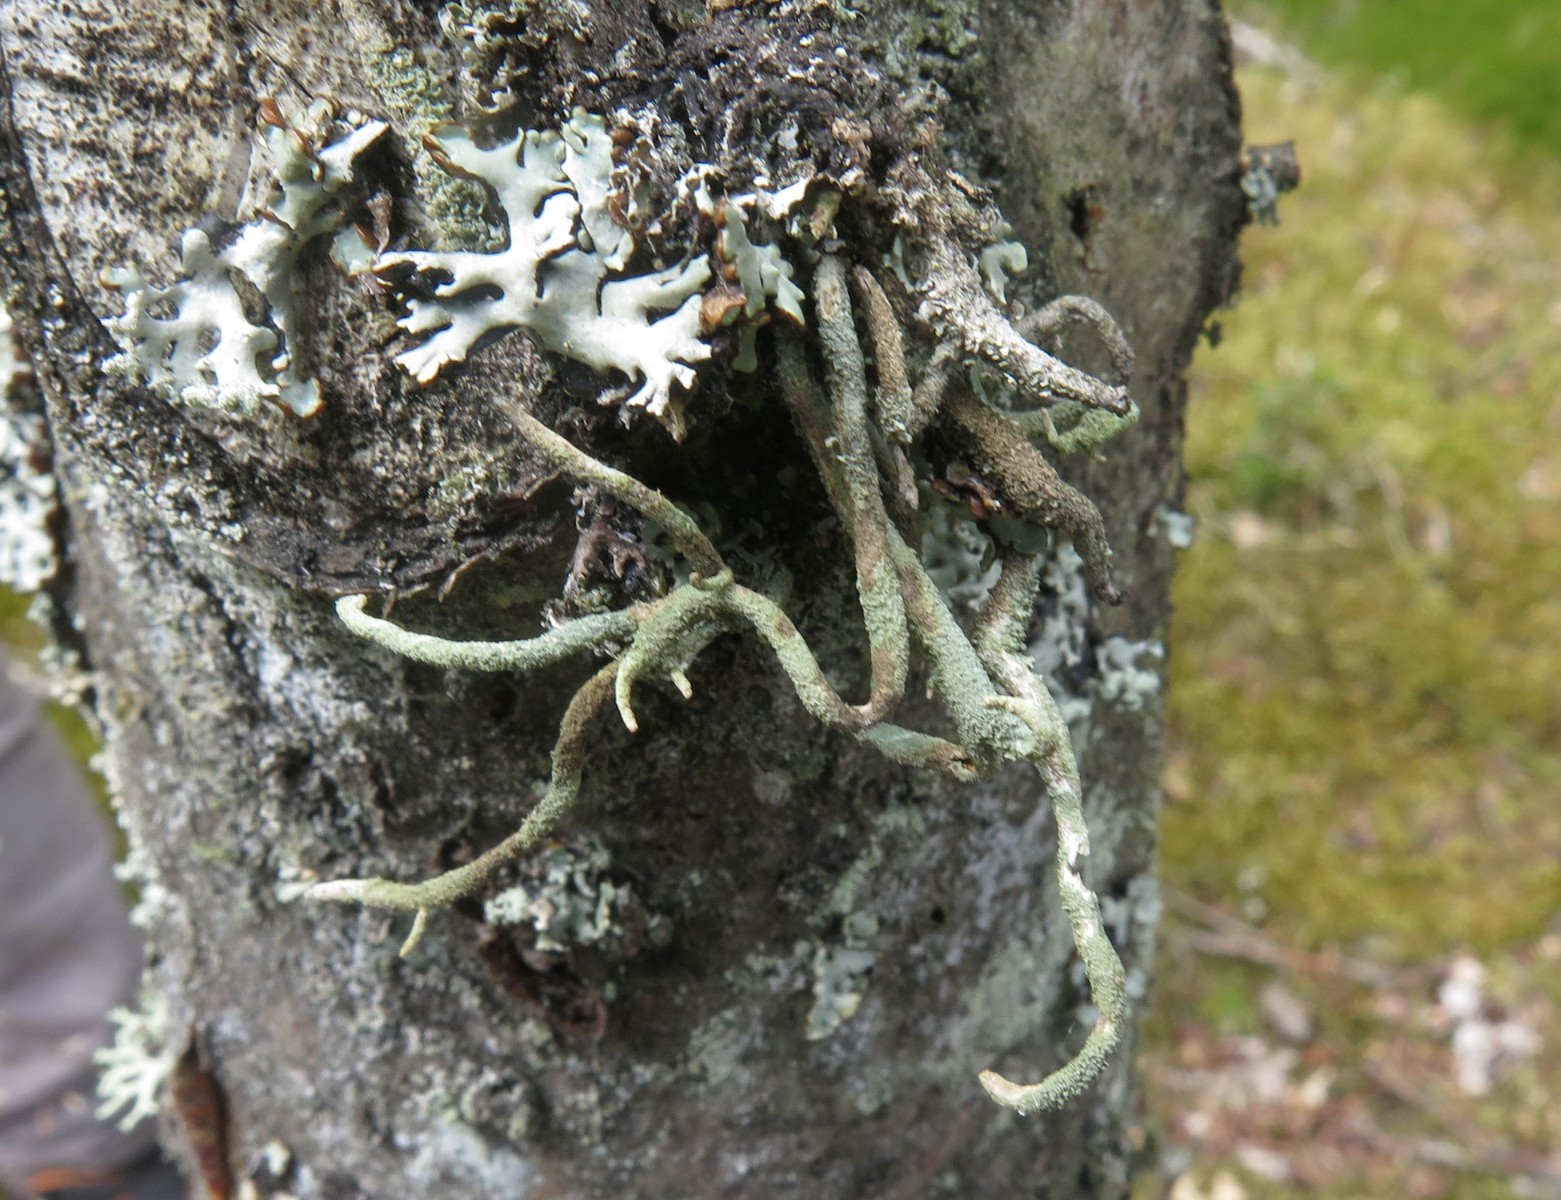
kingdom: Fungi
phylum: Ascomycota
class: Lecanoromycetes
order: Lecanorales
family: Cladoniaceae
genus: Cladonia
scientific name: Cladonia ochrochlora
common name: stød-bægerlav
